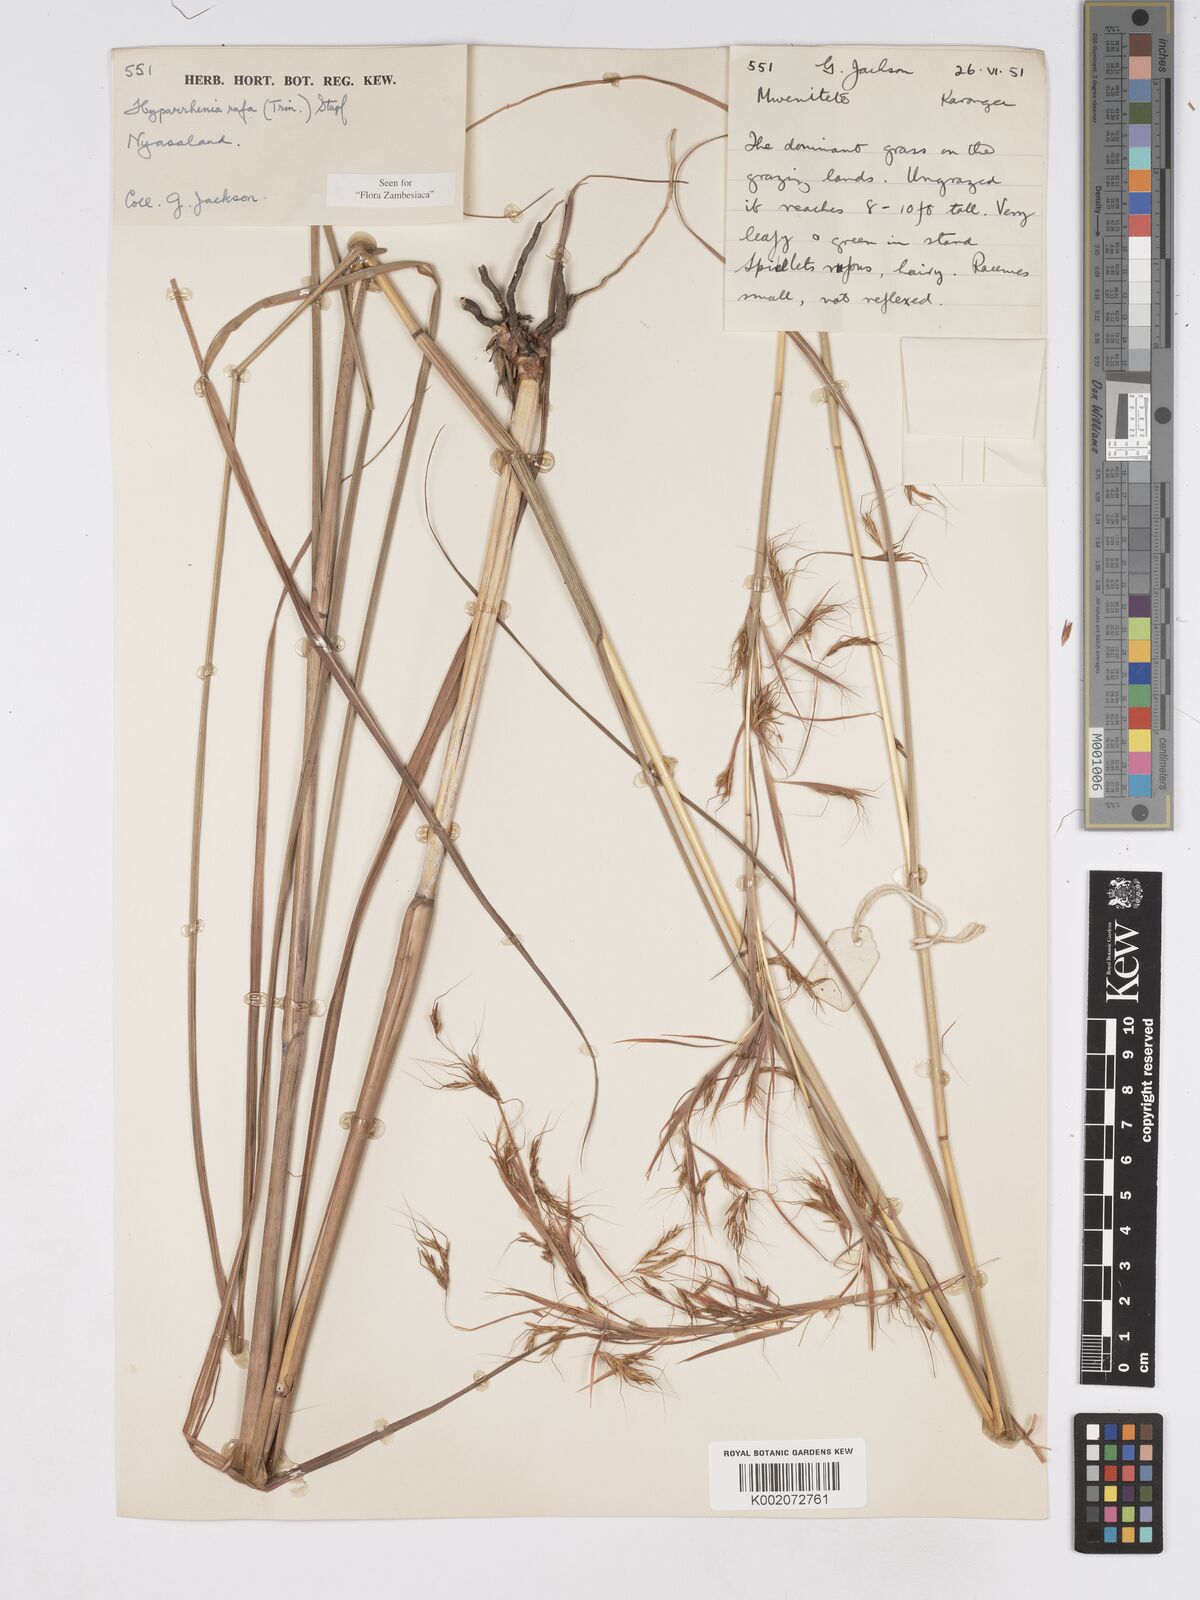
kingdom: Plantae
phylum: Tracheophyta
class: Liliopsida
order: Poales
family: Poaceae
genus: Hyparrhenia
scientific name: Hyparrhenia rufa
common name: Jaraguagrass
